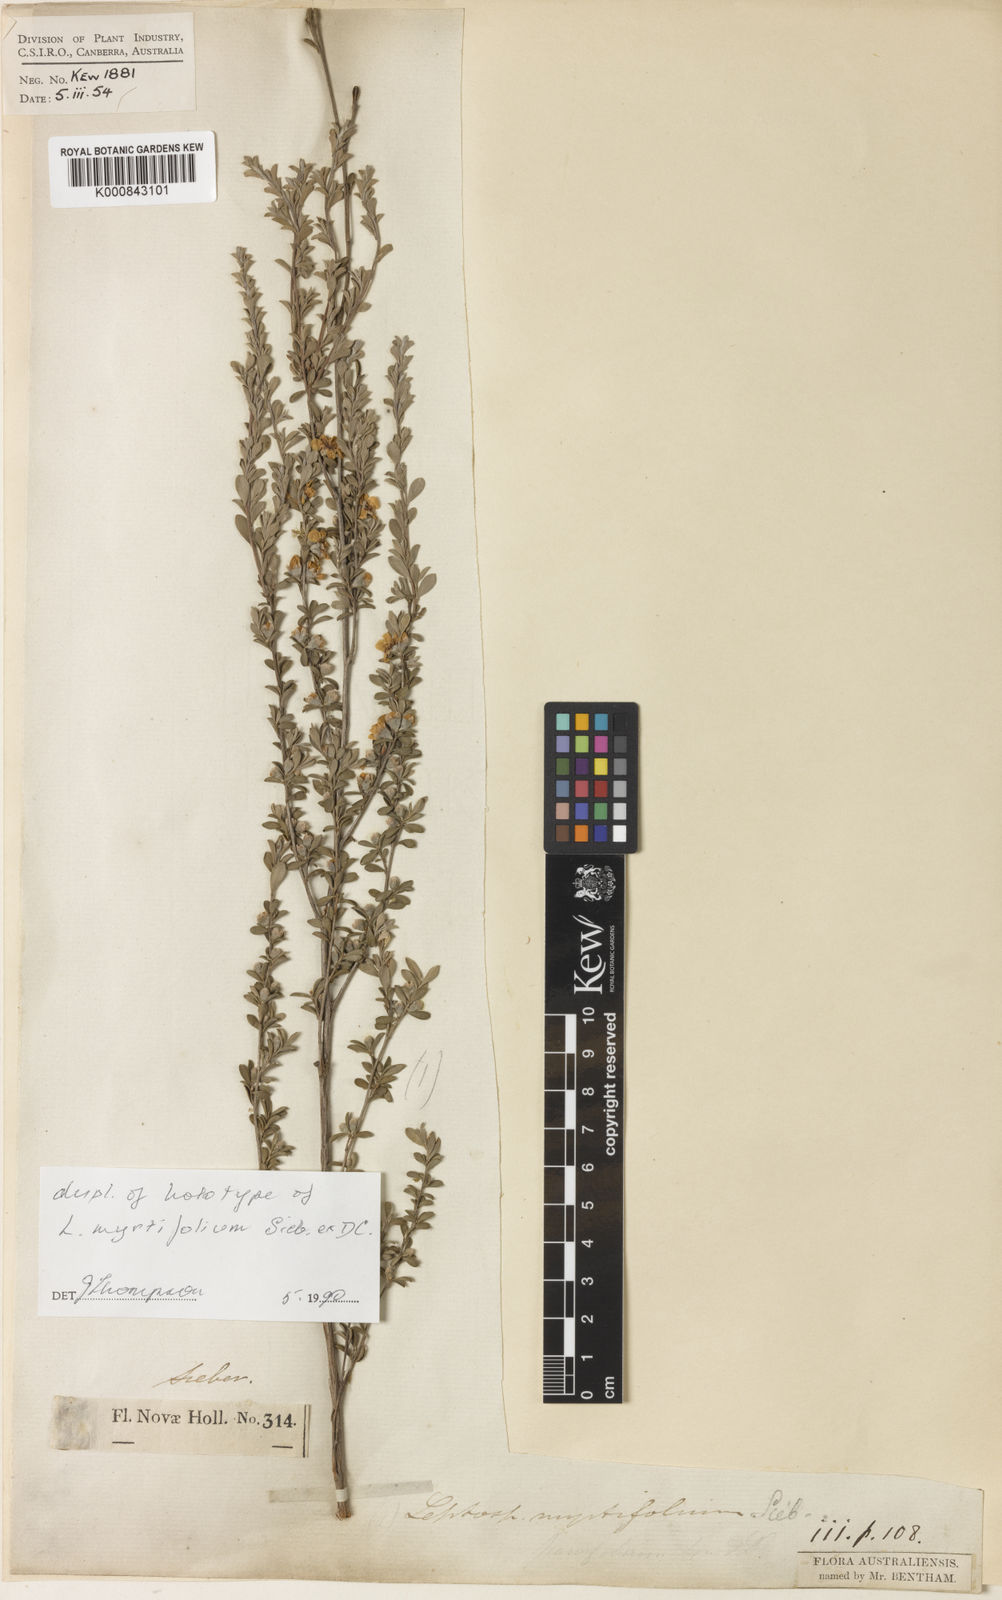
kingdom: Plantae
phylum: Tracheophyta
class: Magnoliopsida
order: Myrtales
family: Myrtaceae
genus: Leptospermum
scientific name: Leptospermum myrtifolium
